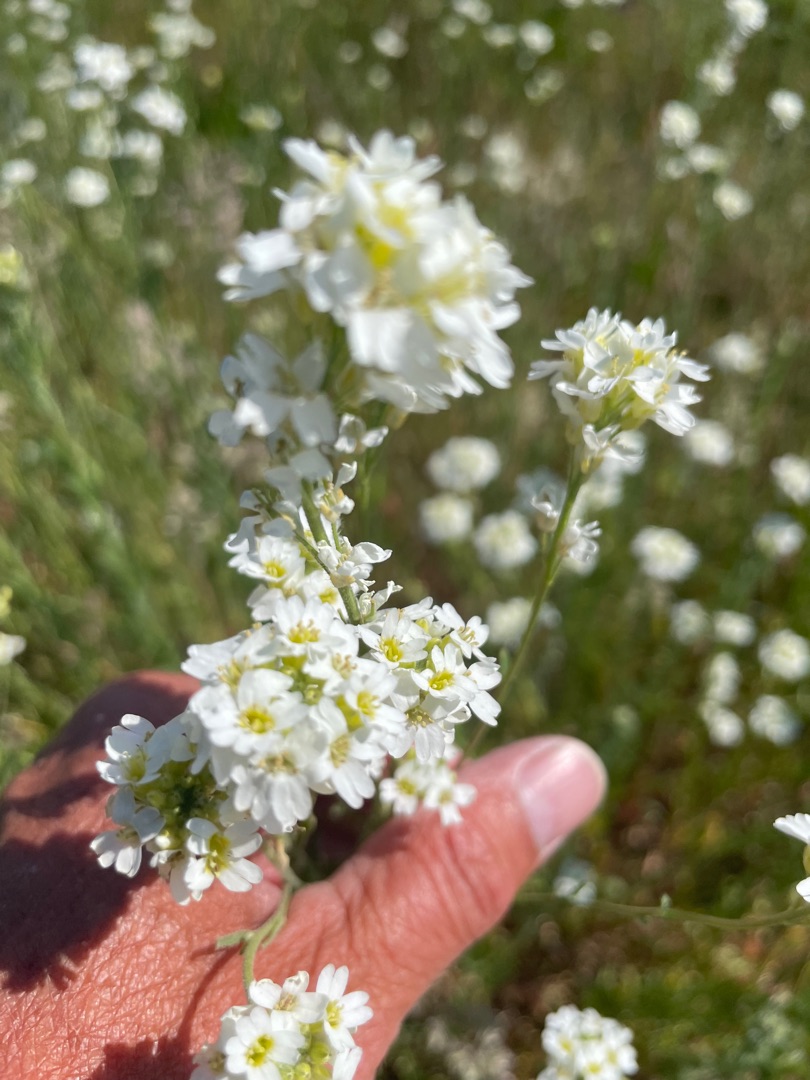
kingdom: Plantae
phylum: Tracheophyta
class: Magnoliopsida
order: Brassicales
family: Brassicaceae
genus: Berteroa
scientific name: Berteroa incana
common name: Kløvplade
